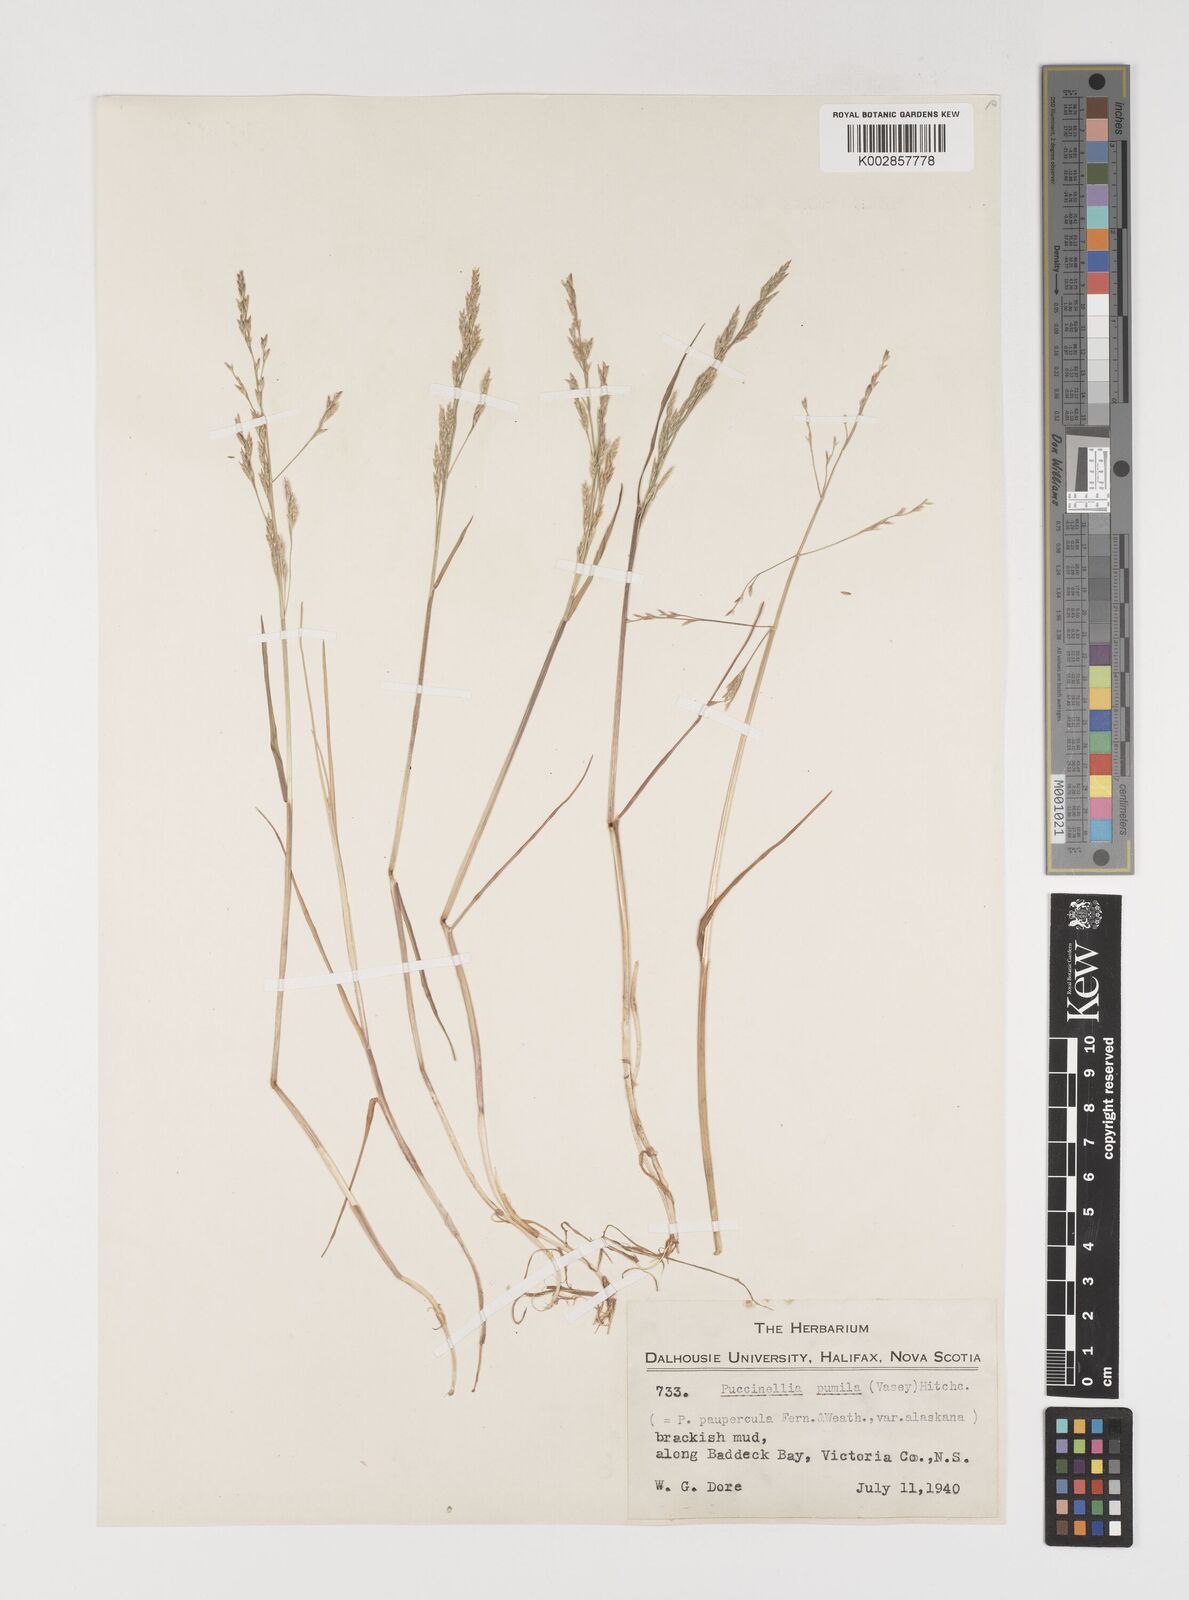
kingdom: Plantae
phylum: Tracheophyta
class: Liliopsida
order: Poales
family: Poaceae
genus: Puccinellia
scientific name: Puccinellia pumila
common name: Dwarf alkaligrass
